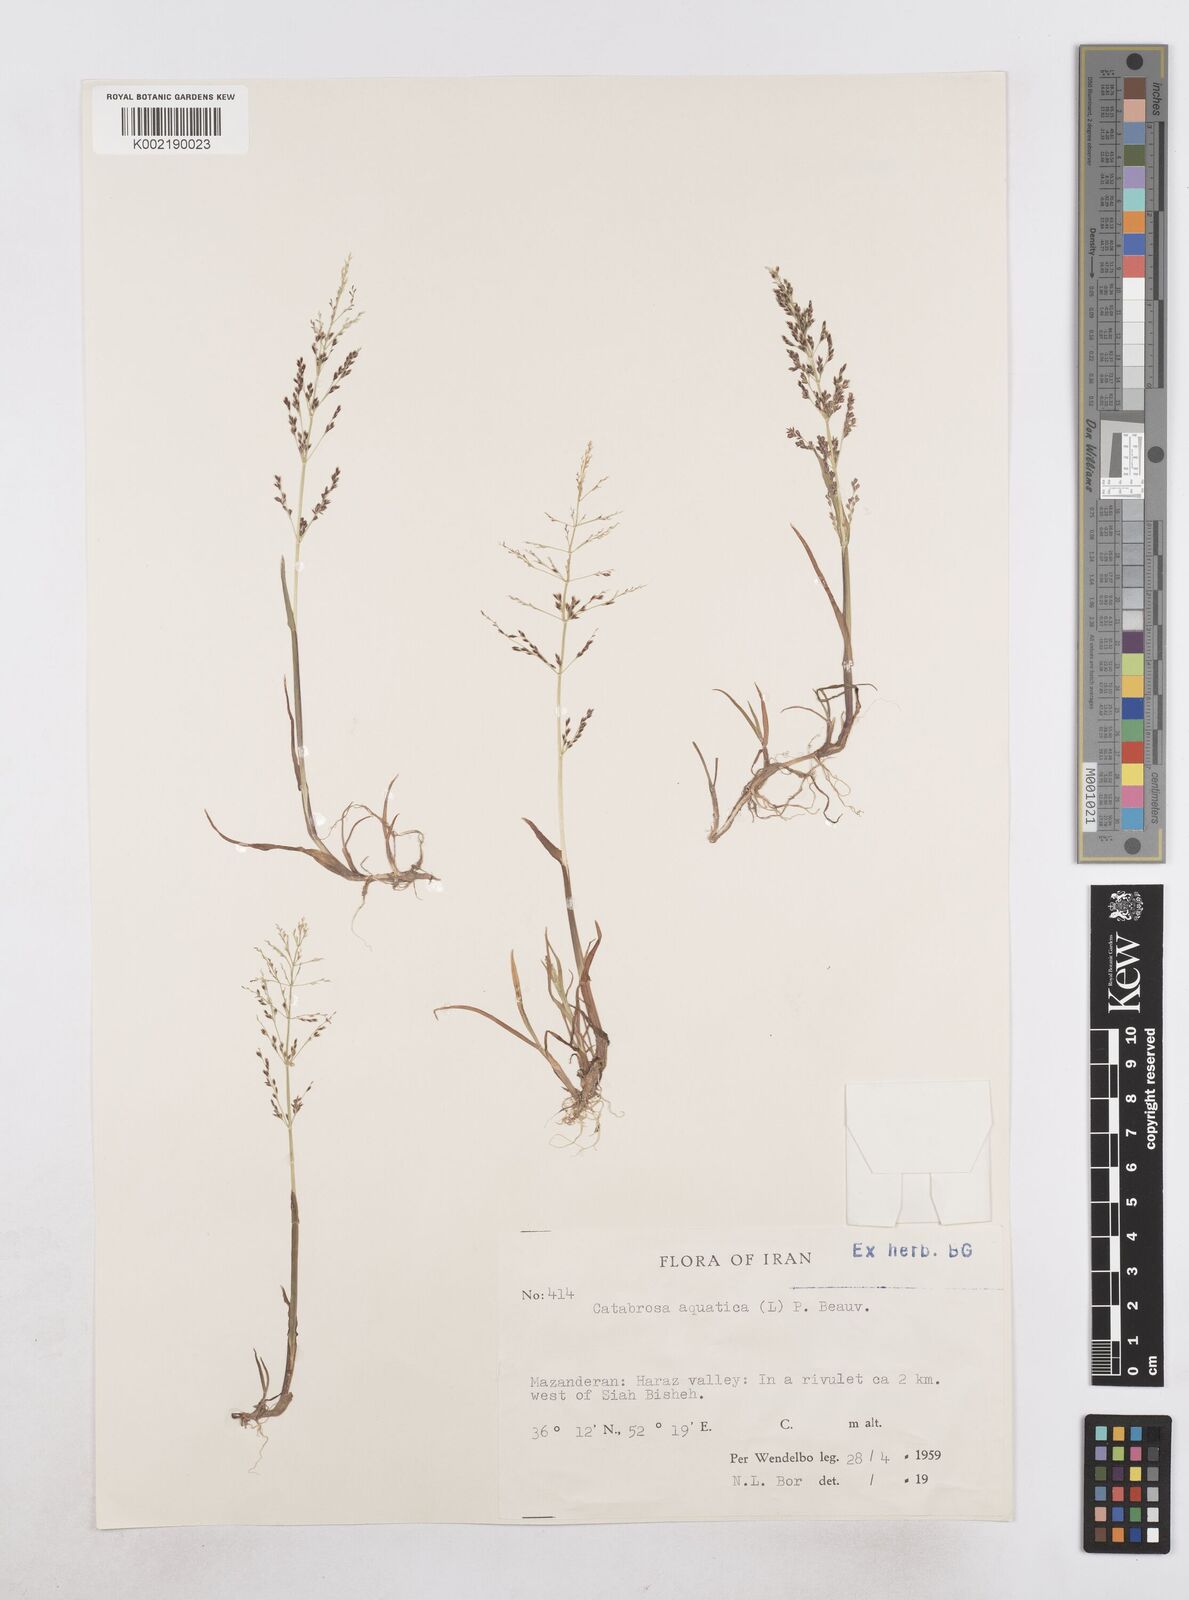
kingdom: Plantae
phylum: Tracheophyta
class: Liliopsida
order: Poales
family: Poaceae
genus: Catabrosa
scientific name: Catabrosa aquatica
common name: Whorl-grass
